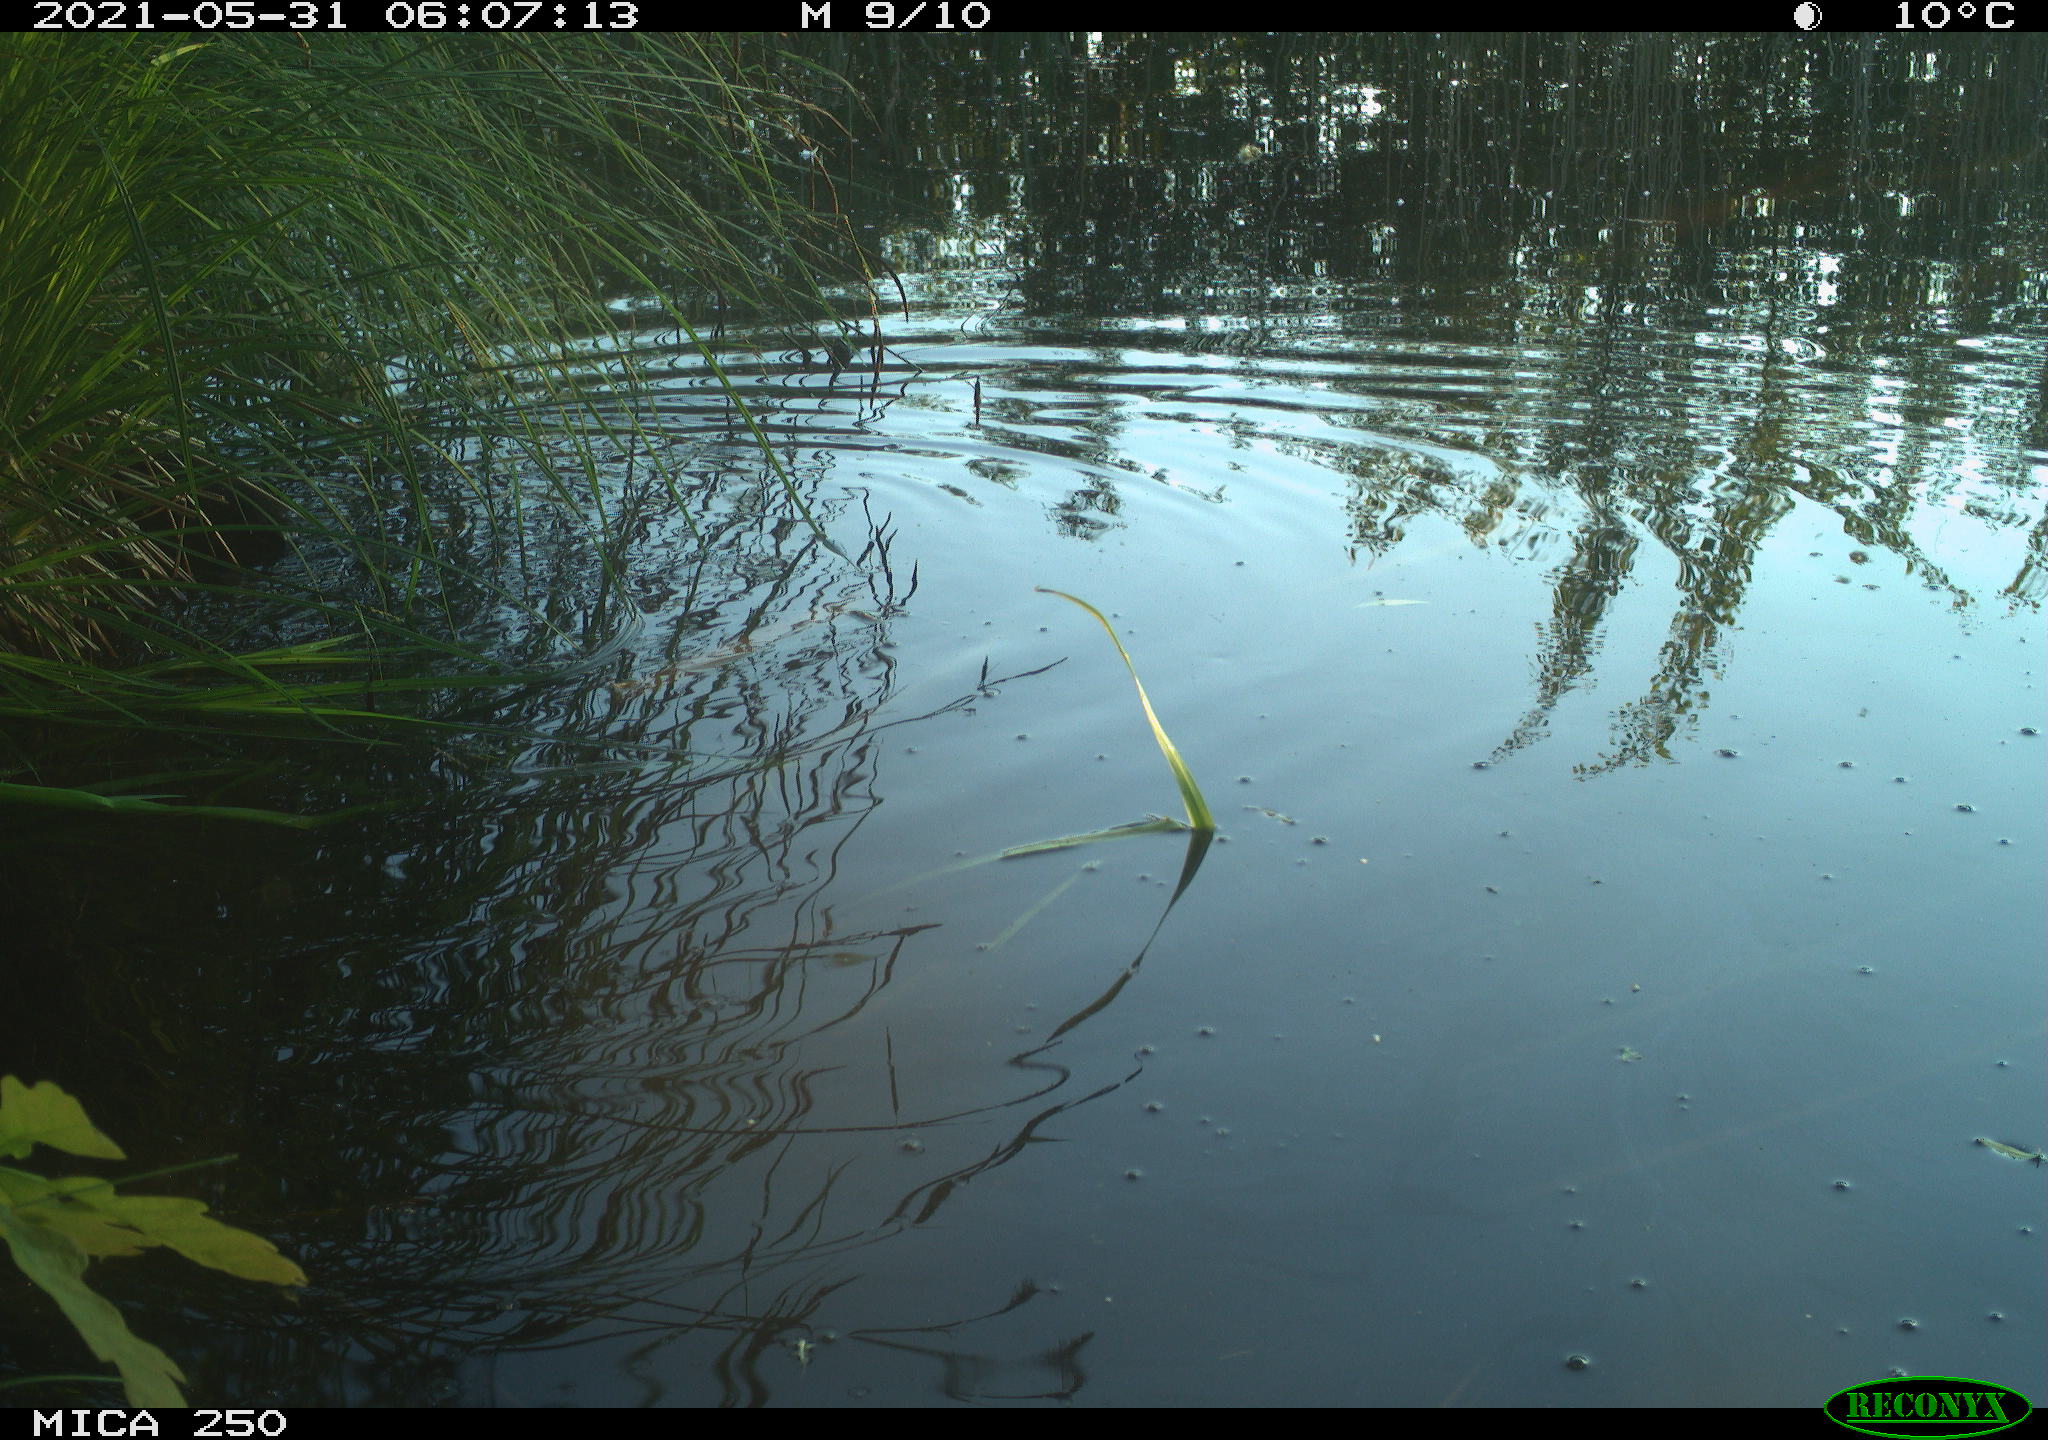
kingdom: Animalia
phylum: Chordata
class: Aves
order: Gruiformes
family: Rallidae
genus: Gallinula
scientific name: Gallinula chloropus
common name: Common moorhen
